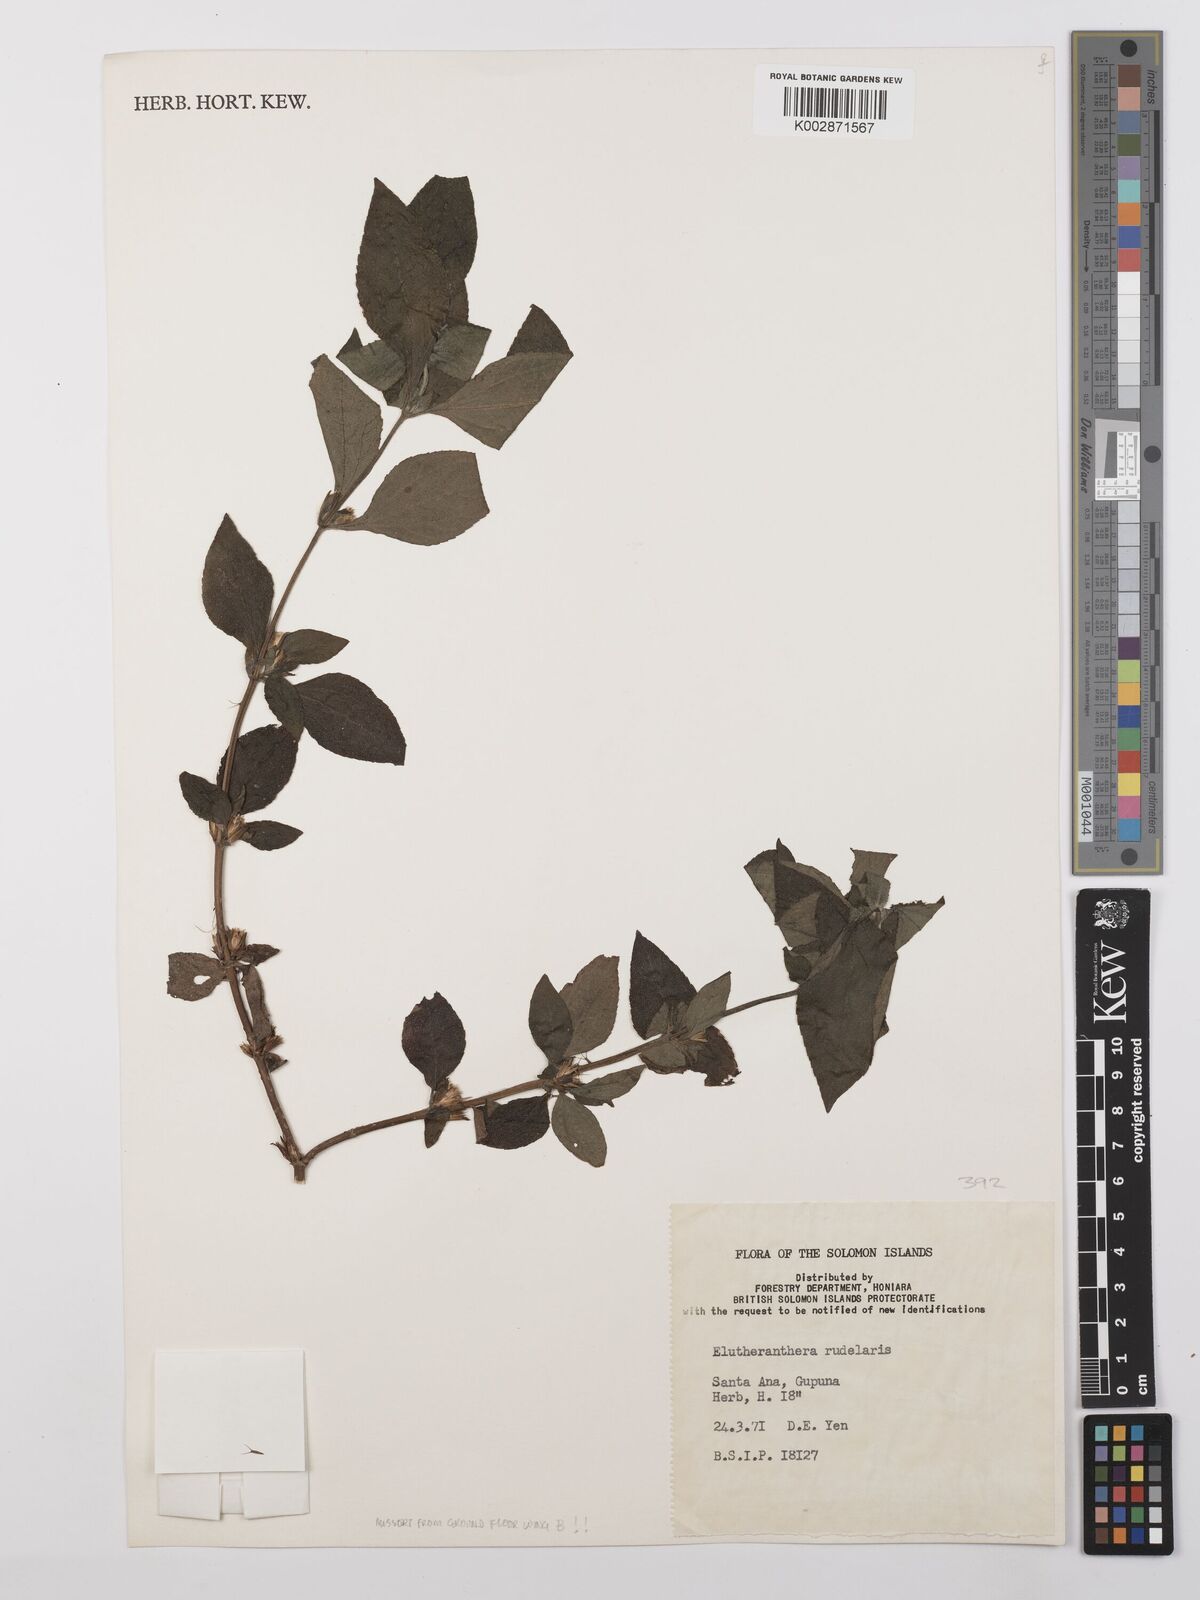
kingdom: Plantae
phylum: Tracheophyta
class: Magnoliopsida
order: Asterales
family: Asteraceae
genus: Eleutheranthera
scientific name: Eleutheranthera ruderalis
